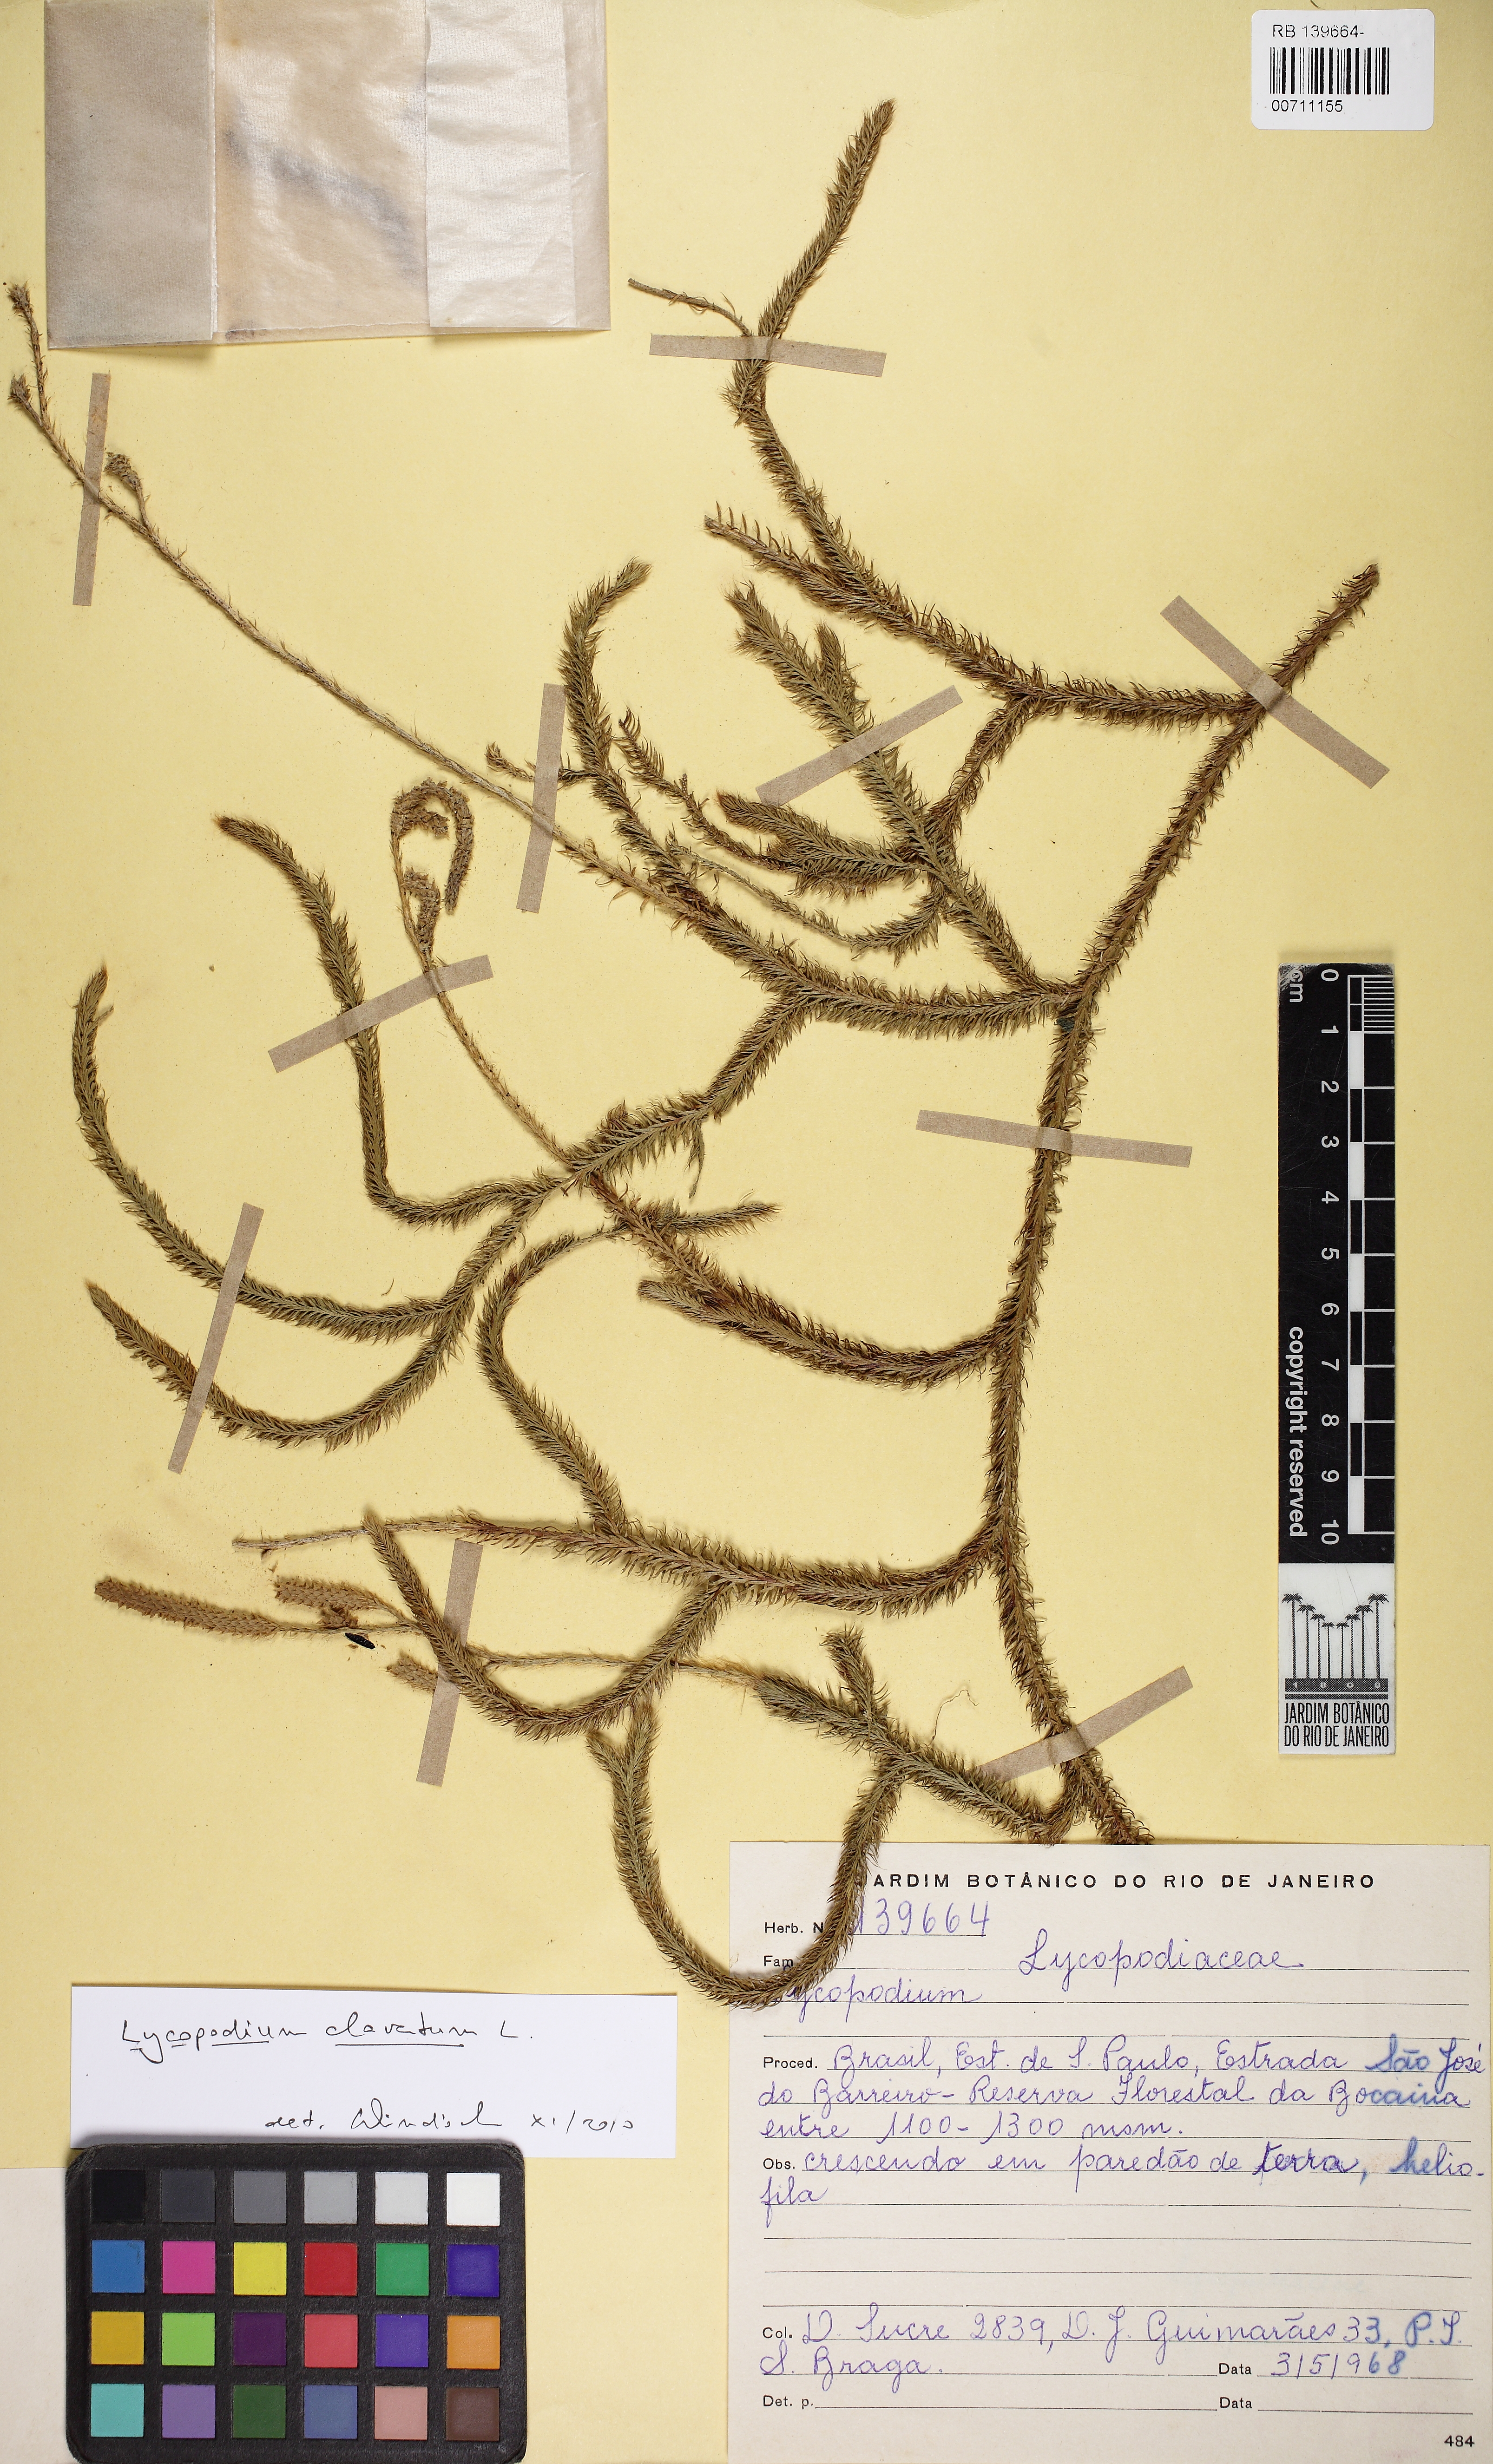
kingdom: Plantae
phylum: Tracheophyta
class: Lycopodiopsida
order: Lycopodiales
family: Lycopodiaceae
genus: Lycopodium
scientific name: Lycopodium clavatum
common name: Stag's-horn clubmoss
